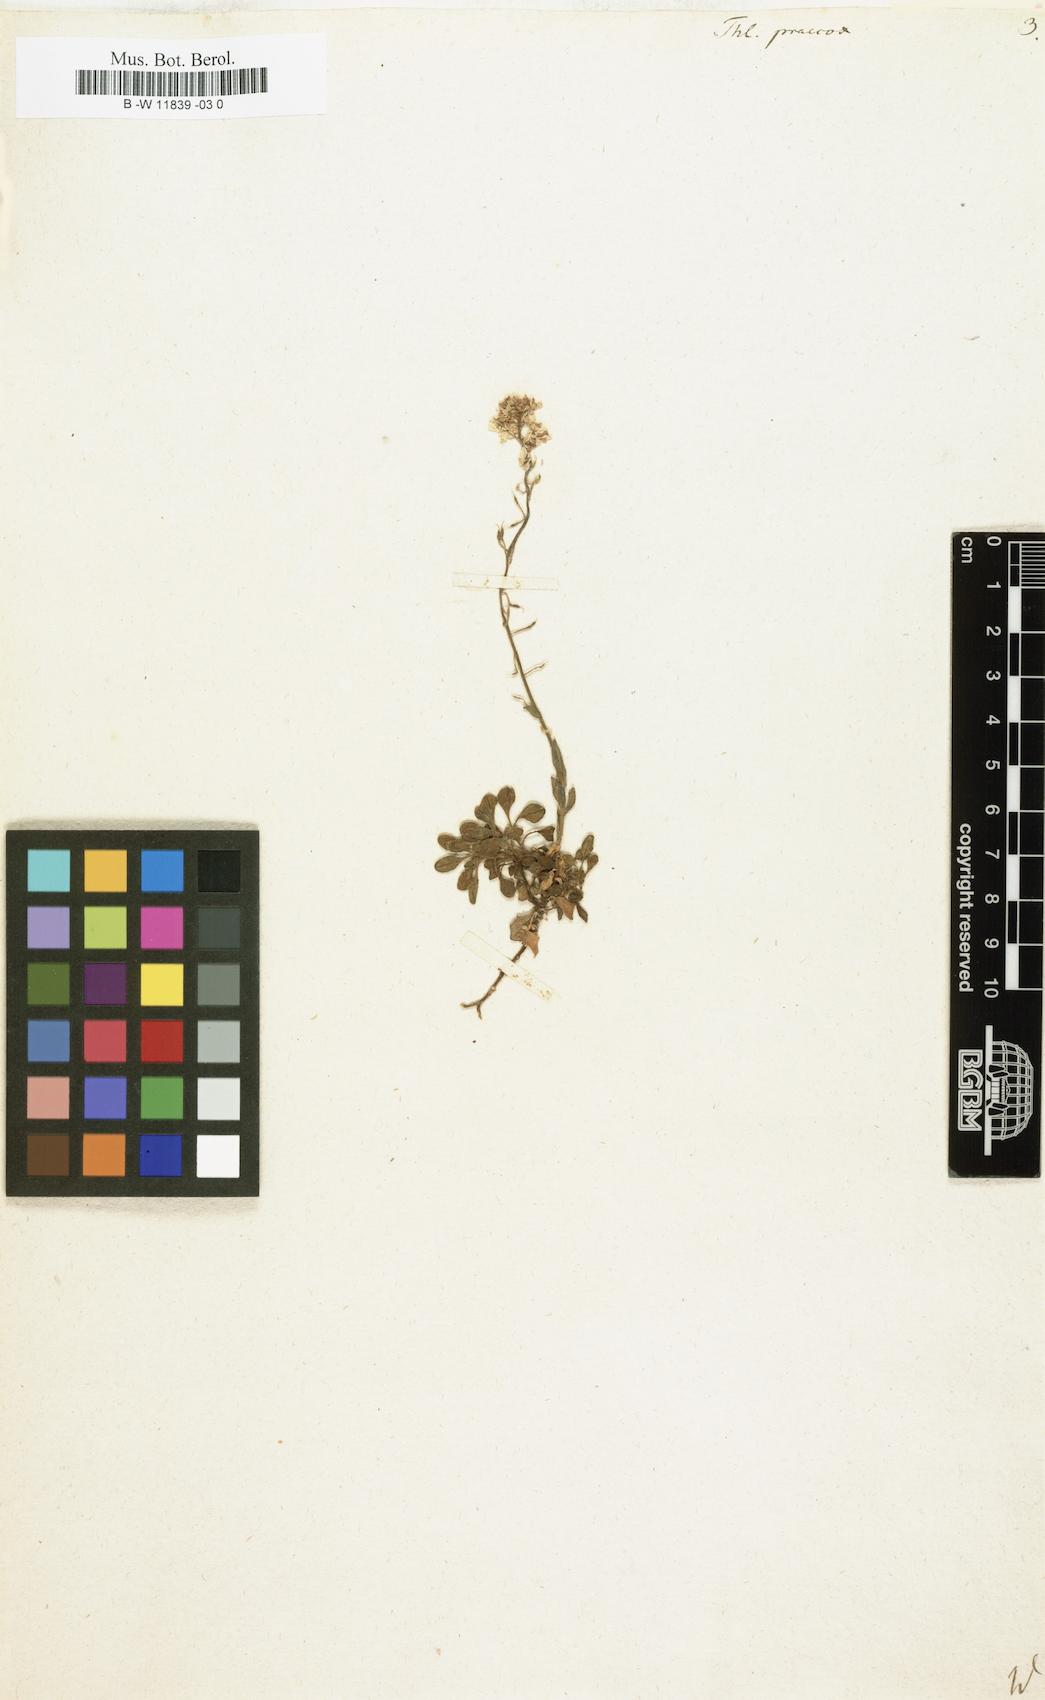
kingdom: Plantae
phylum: Tracheophyta
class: Magnoliopsida
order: Brassicales
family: Brassicaceae
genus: Thlaspi
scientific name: Thlaspi praecox
